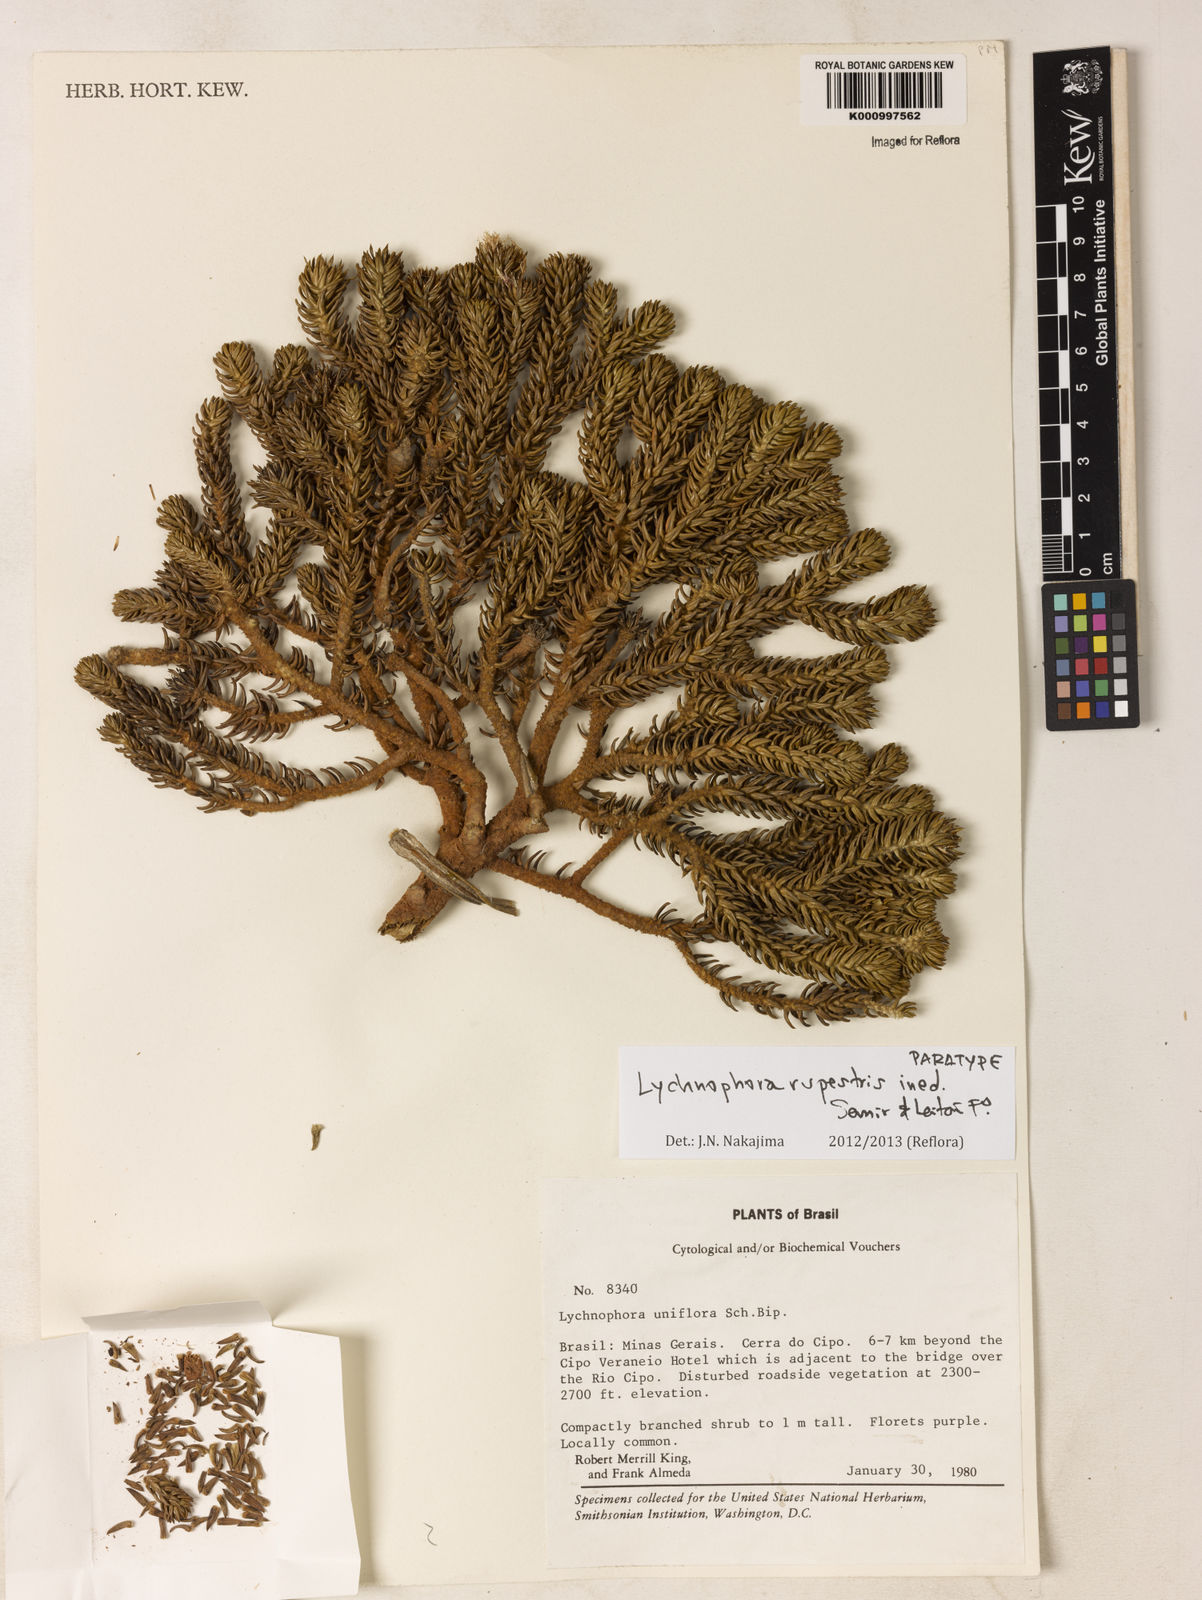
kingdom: Plantae
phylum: Tracheophyta
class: Magnoliopsida
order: Asterales
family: Asteraceae
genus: Lychnophora
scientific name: Lychnophora rupestris
